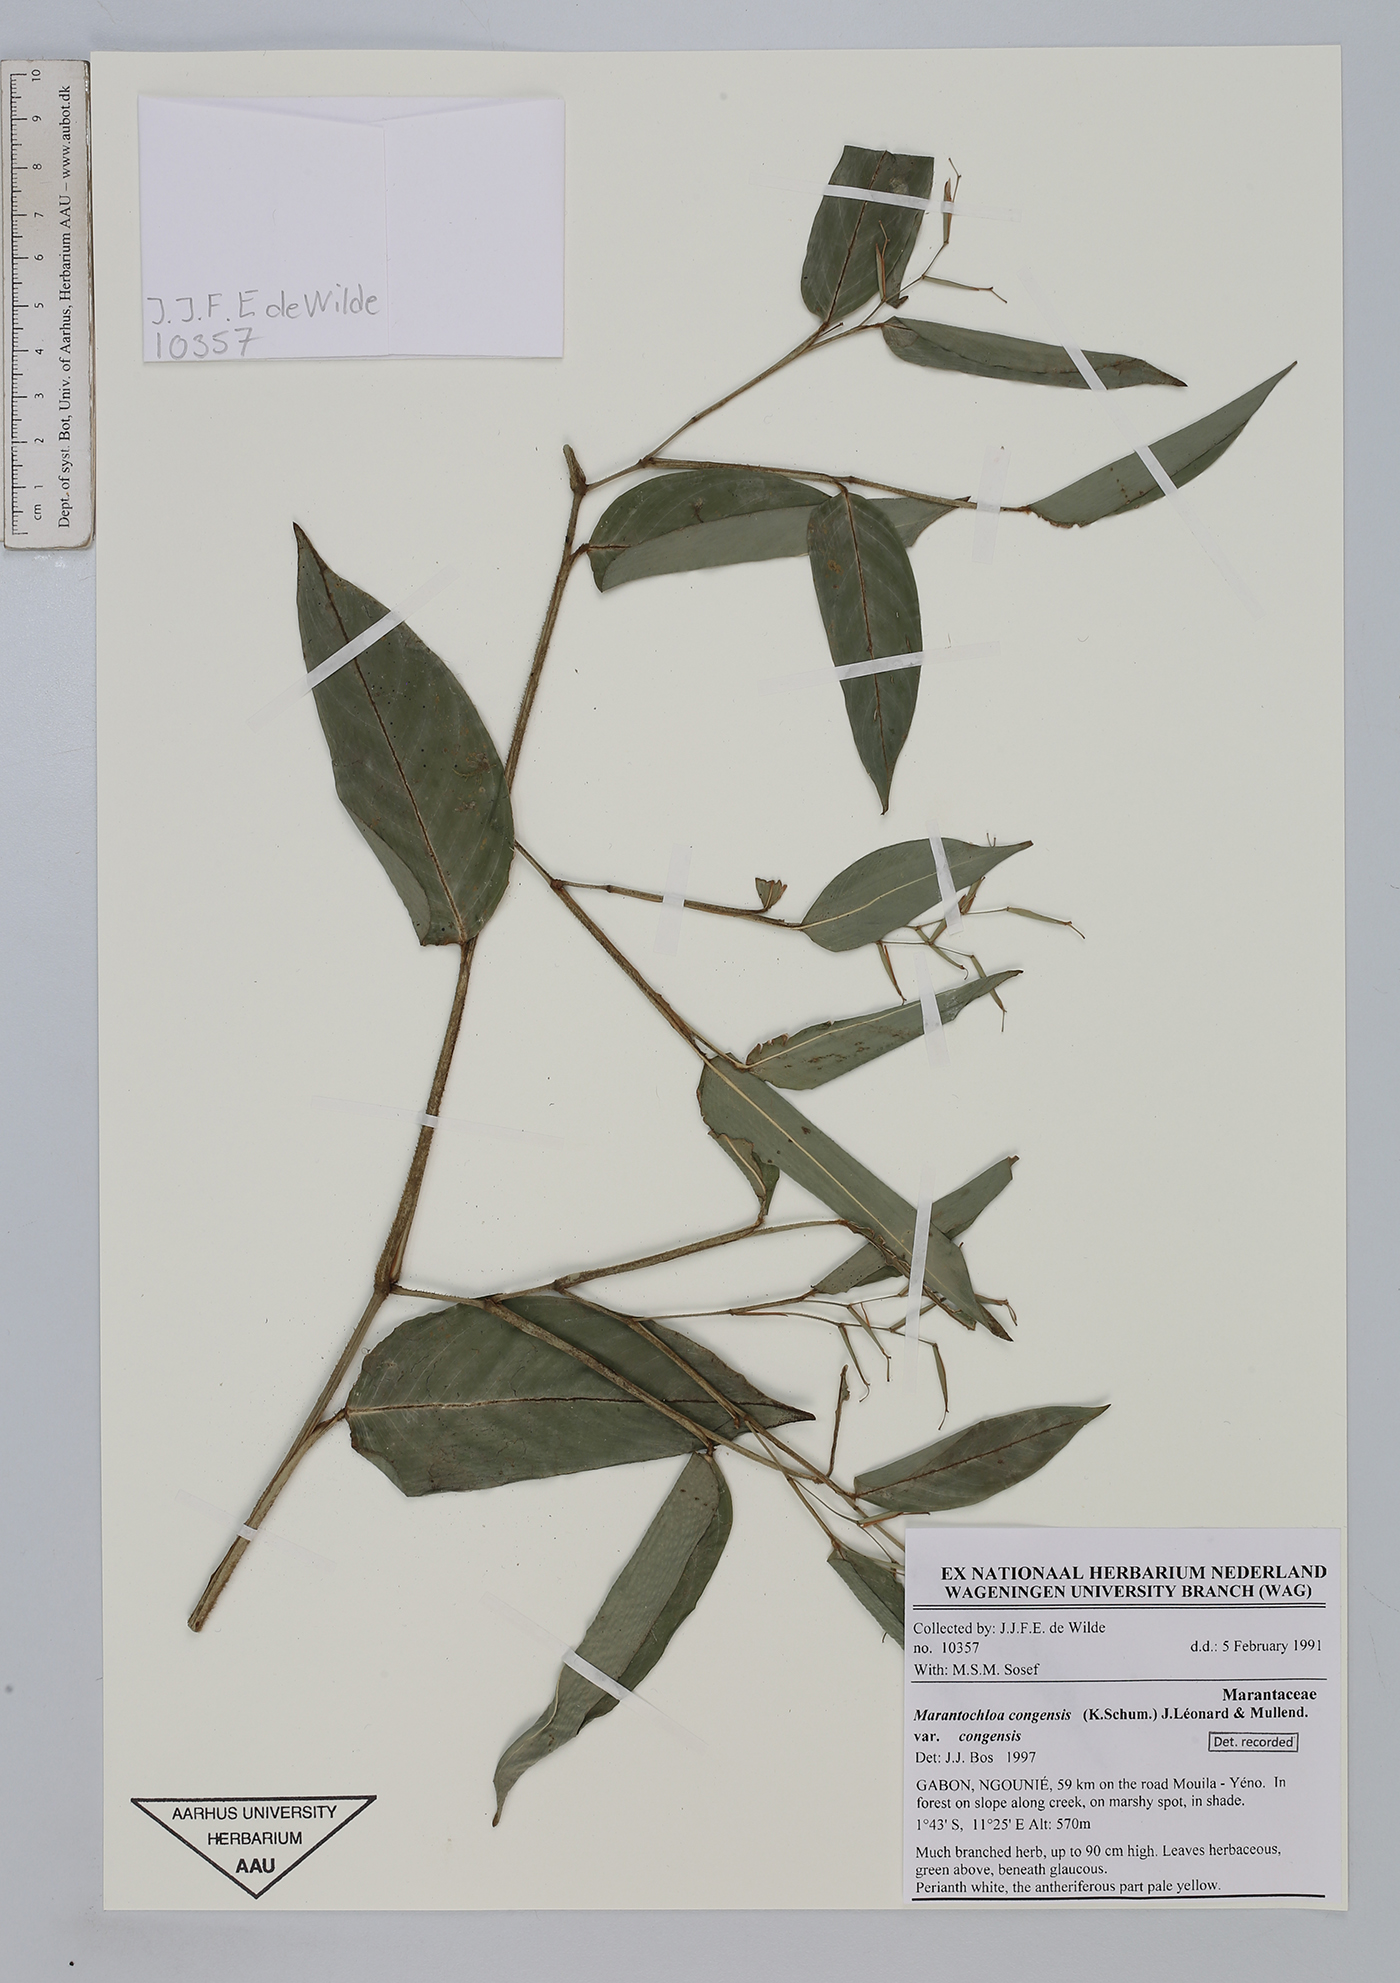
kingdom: Plantae
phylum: Tracheophyta
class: Liliopsida
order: Zingiberales
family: Marantaceae
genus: Marantochloa
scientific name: Marantochloa congensis
